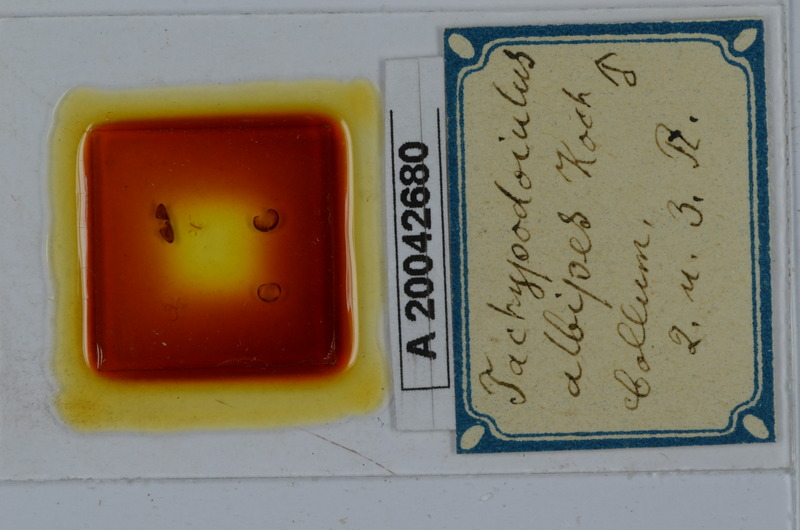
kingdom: Animalia
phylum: Arthropoda
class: Diplopoda
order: Julida
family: Julidae
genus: Tachypodoiulus
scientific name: Tachypodoiulus niger
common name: White-legged snake millipede
